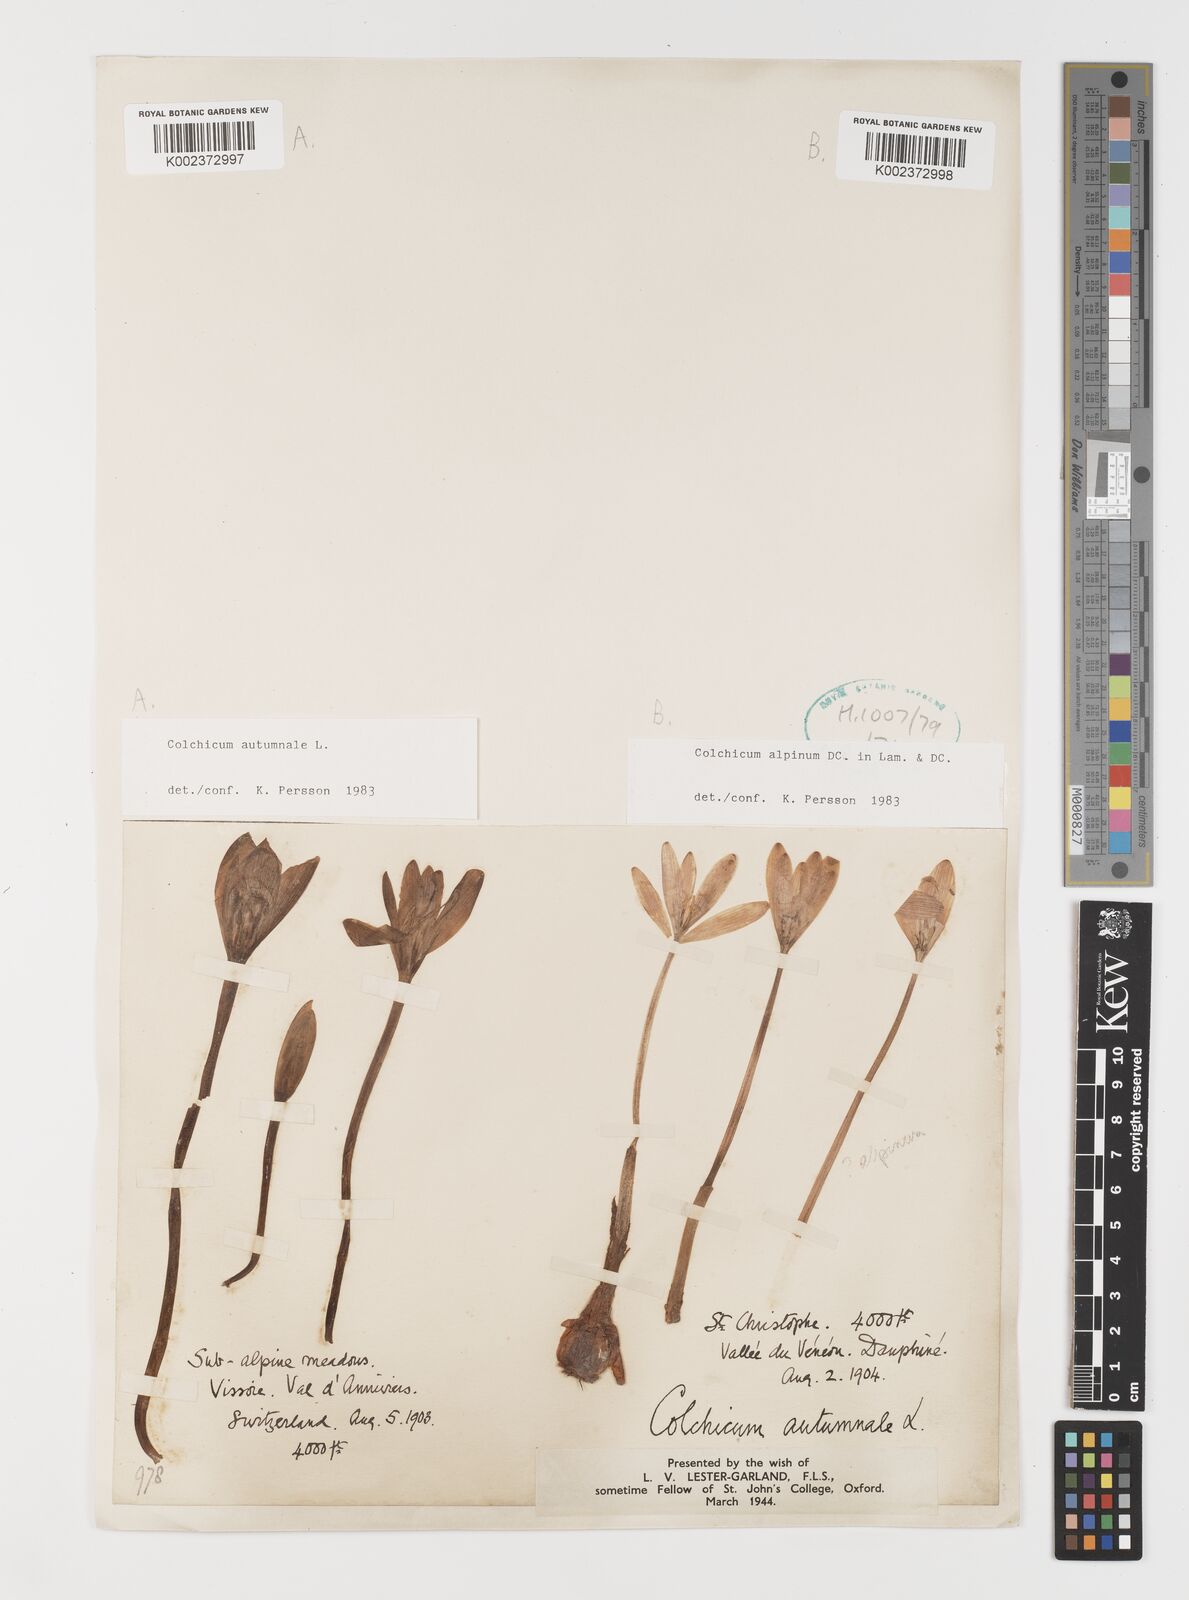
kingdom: Plantae
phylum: Tracheophyta
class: Liliopsida
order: Liliales
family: Colchicaceae
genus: Colchicum
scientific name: Colchicum alpinum
